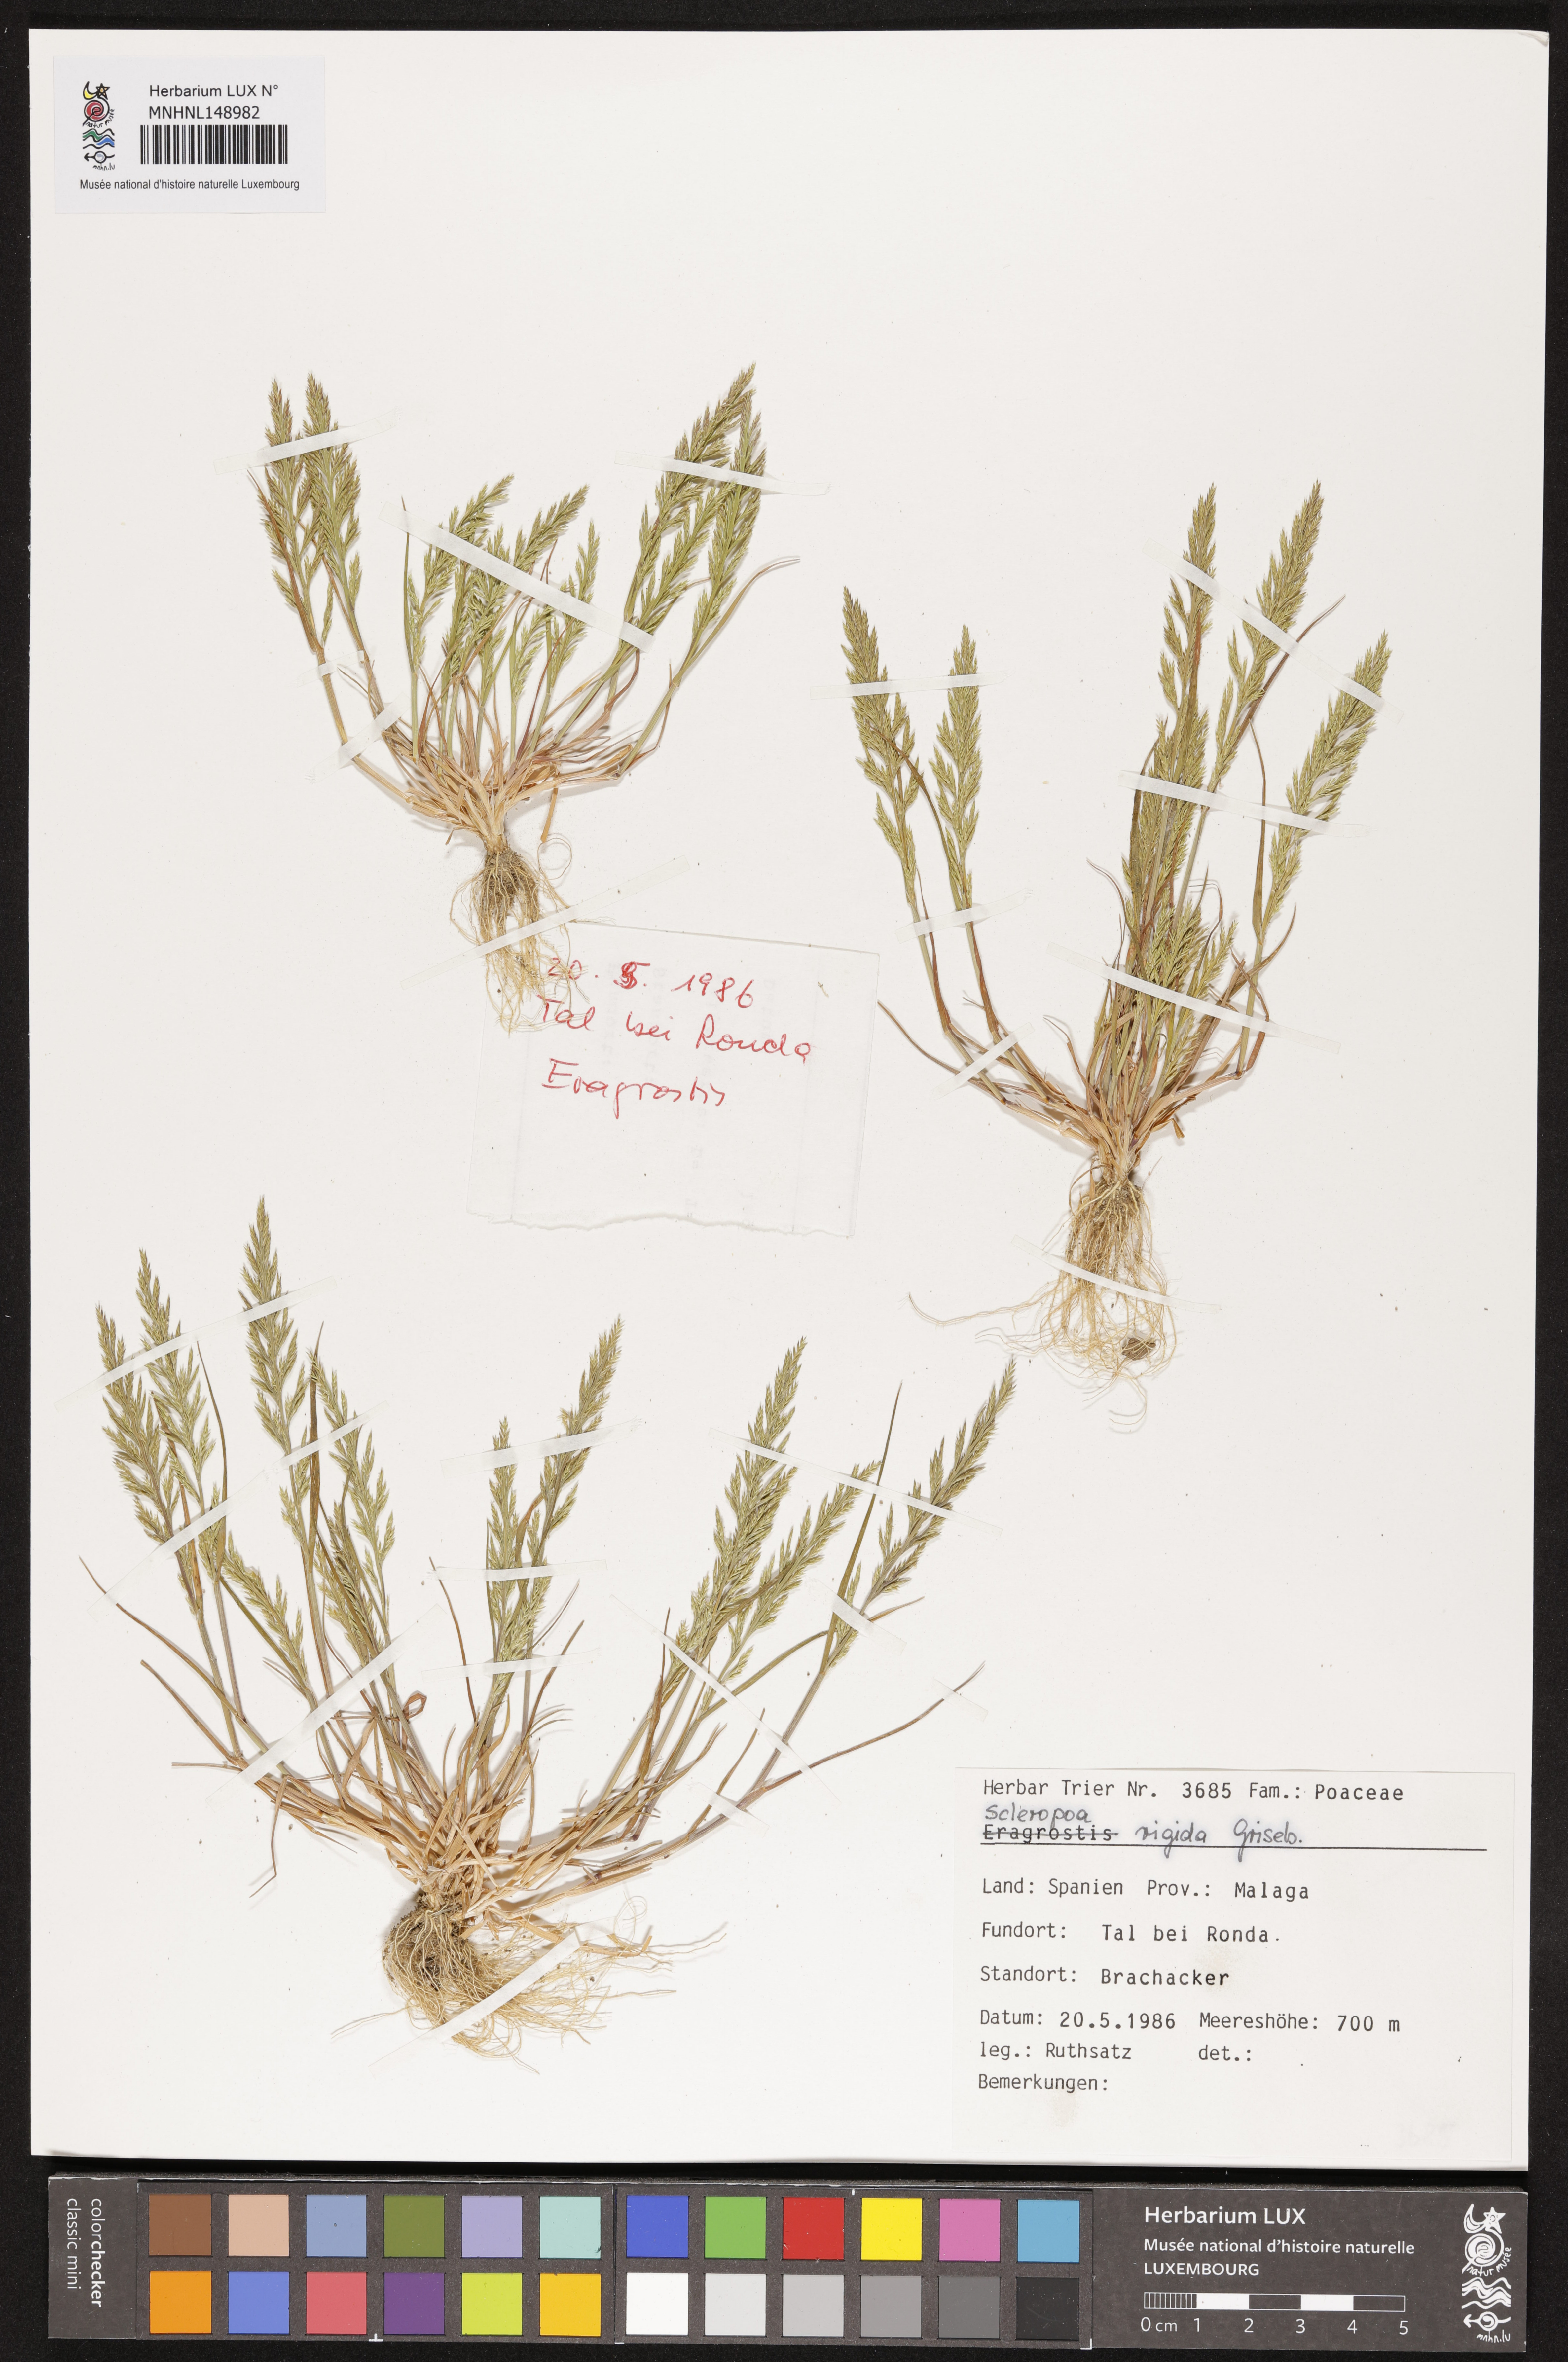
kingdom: Plantae
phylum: Tracheophyta
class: Liliopsida
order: Poales
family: Poaceae
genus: Catapodium
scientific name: Catapodium rigidum
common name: Fern-grass
